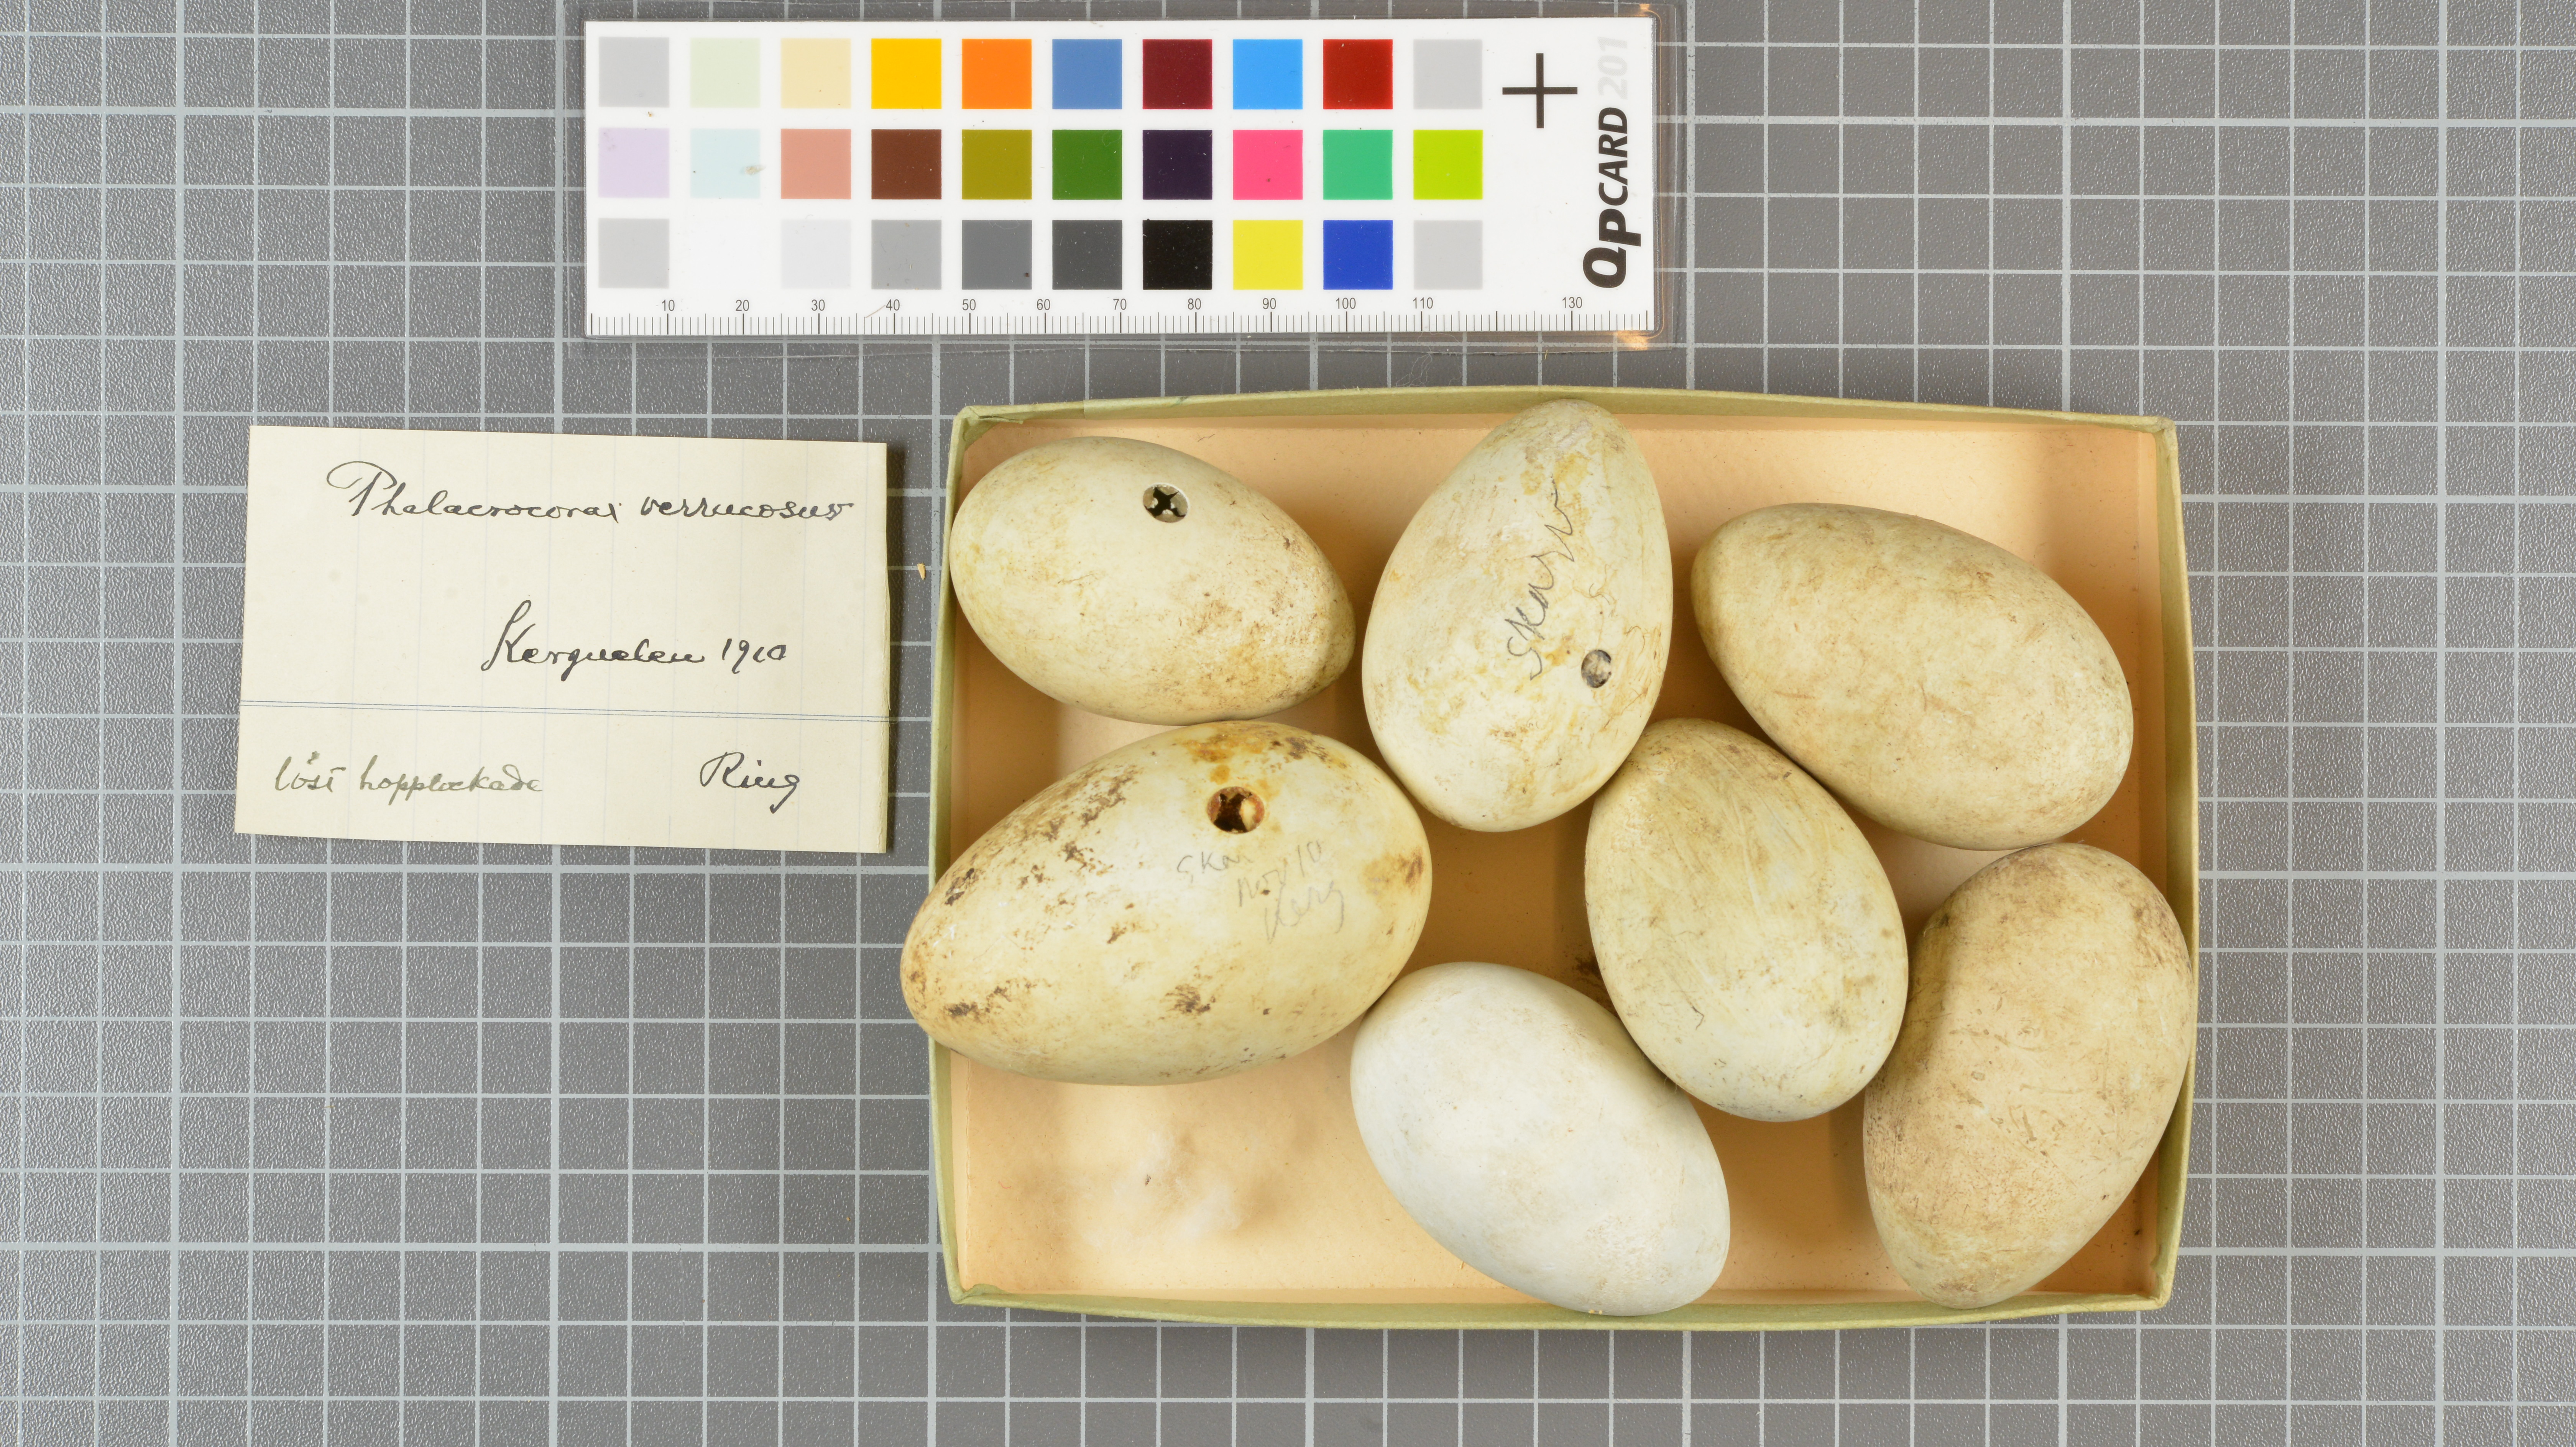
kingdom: Animalia
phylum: Chordata
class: Aves
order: Suliformes
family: Phalacrocoracidae
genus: Leucocarbo
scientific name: Leucocarbo verrucosus
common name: Kerguelen shag
